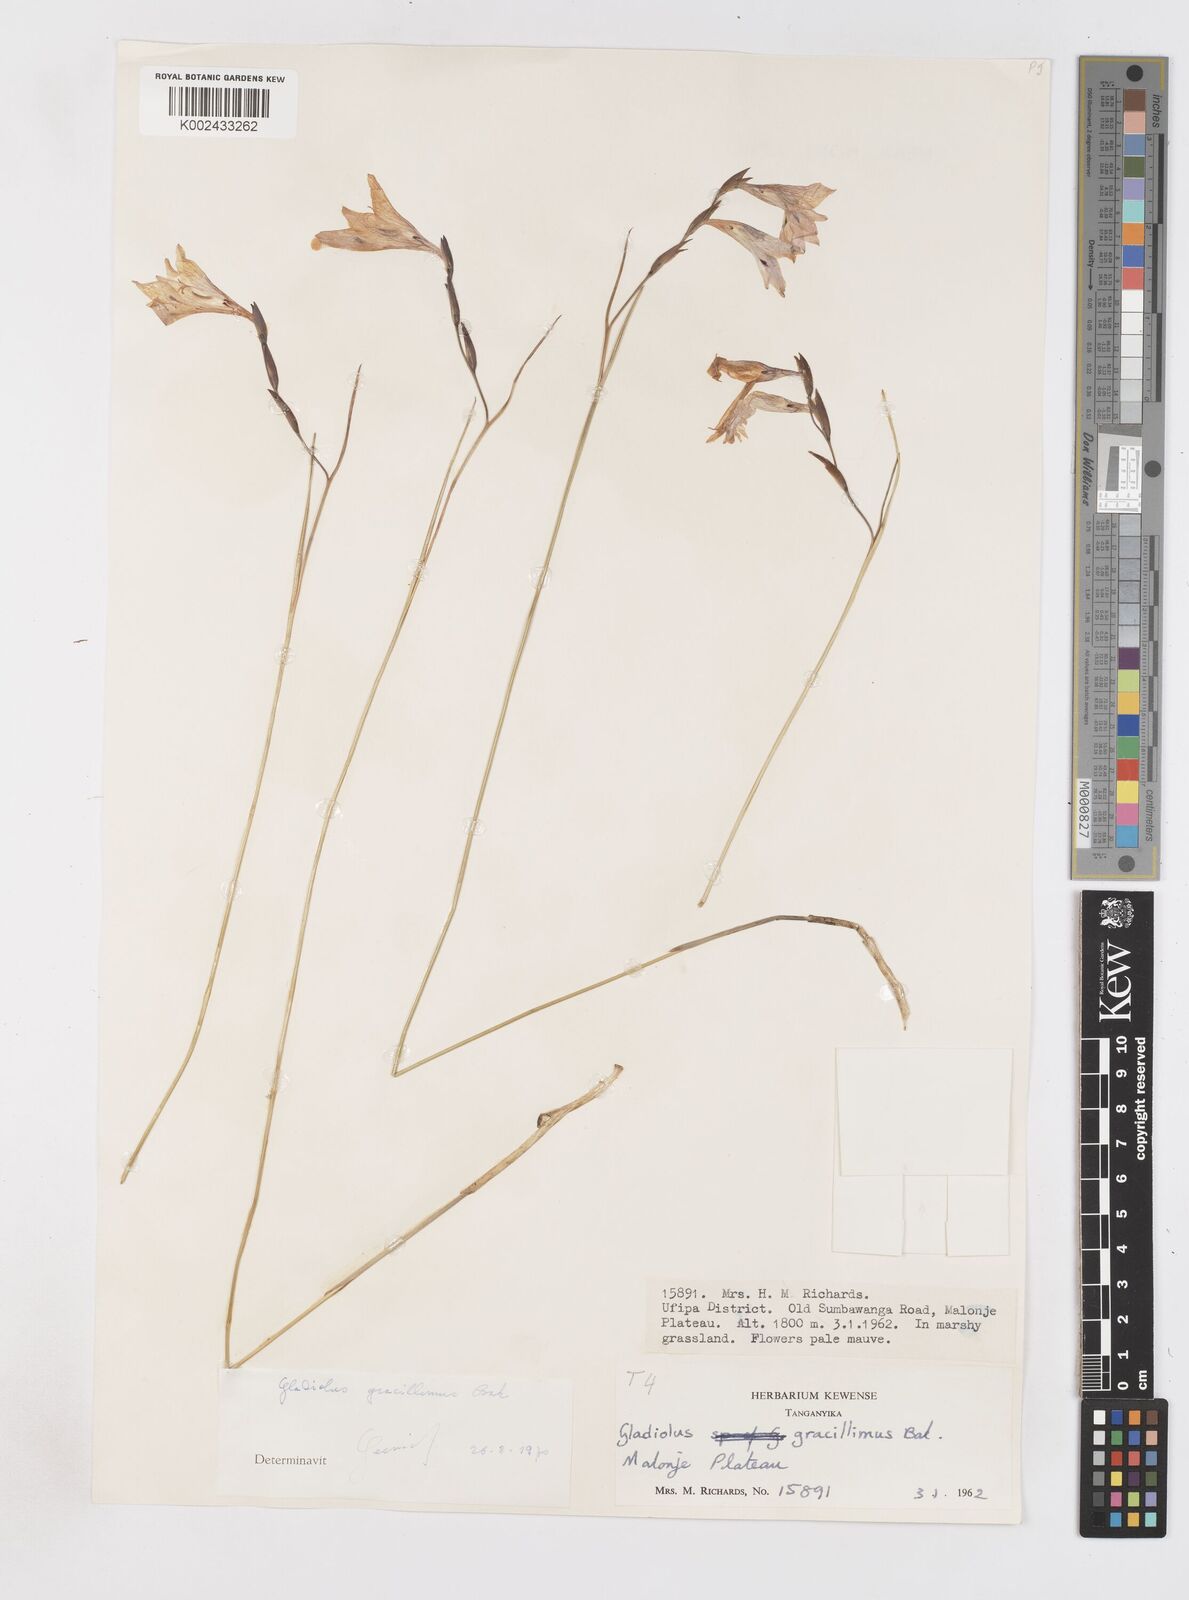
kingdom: Plantae
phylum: Tracheophyta
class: Liliopsida
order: Asparagales
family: Iridaceae
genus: Gladiolus
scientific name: Gladiolus gracillimus
